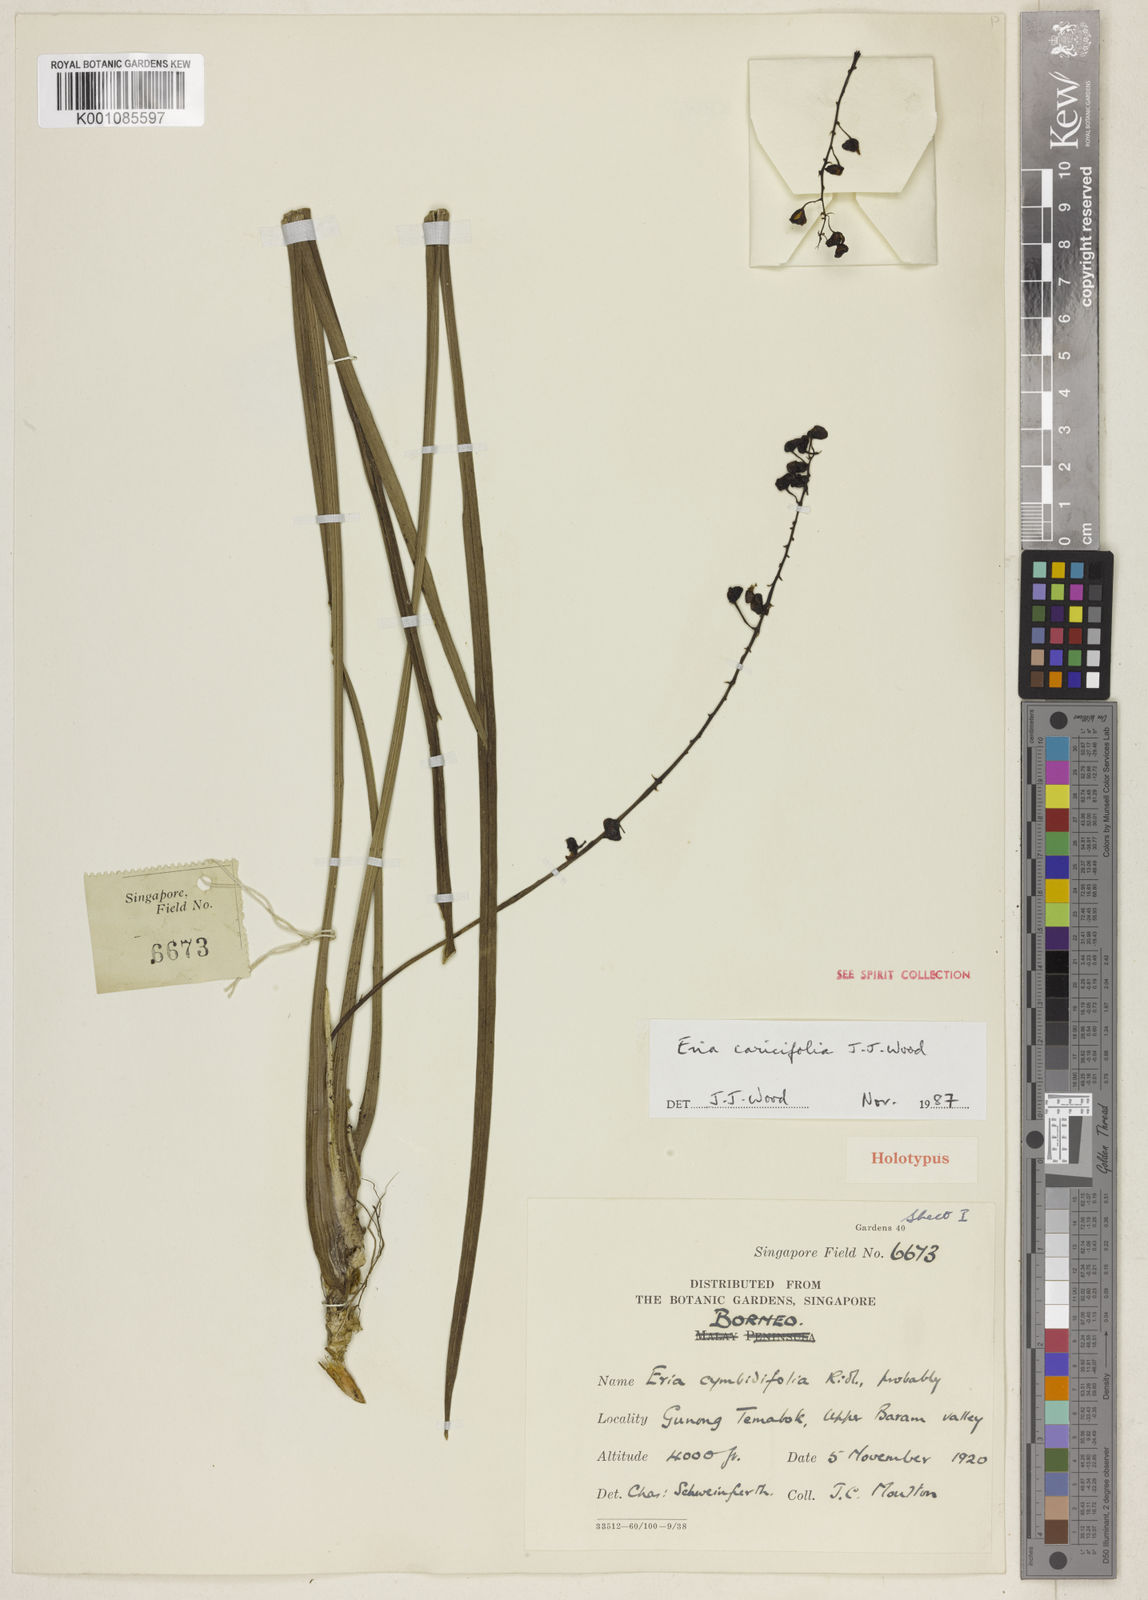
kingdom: Plantae
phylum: Tracheophyta
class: Liliopsida
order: Asparagales
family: Orchidaceae
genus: Cymboglossum
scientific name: Cymboglossum caricifolium
